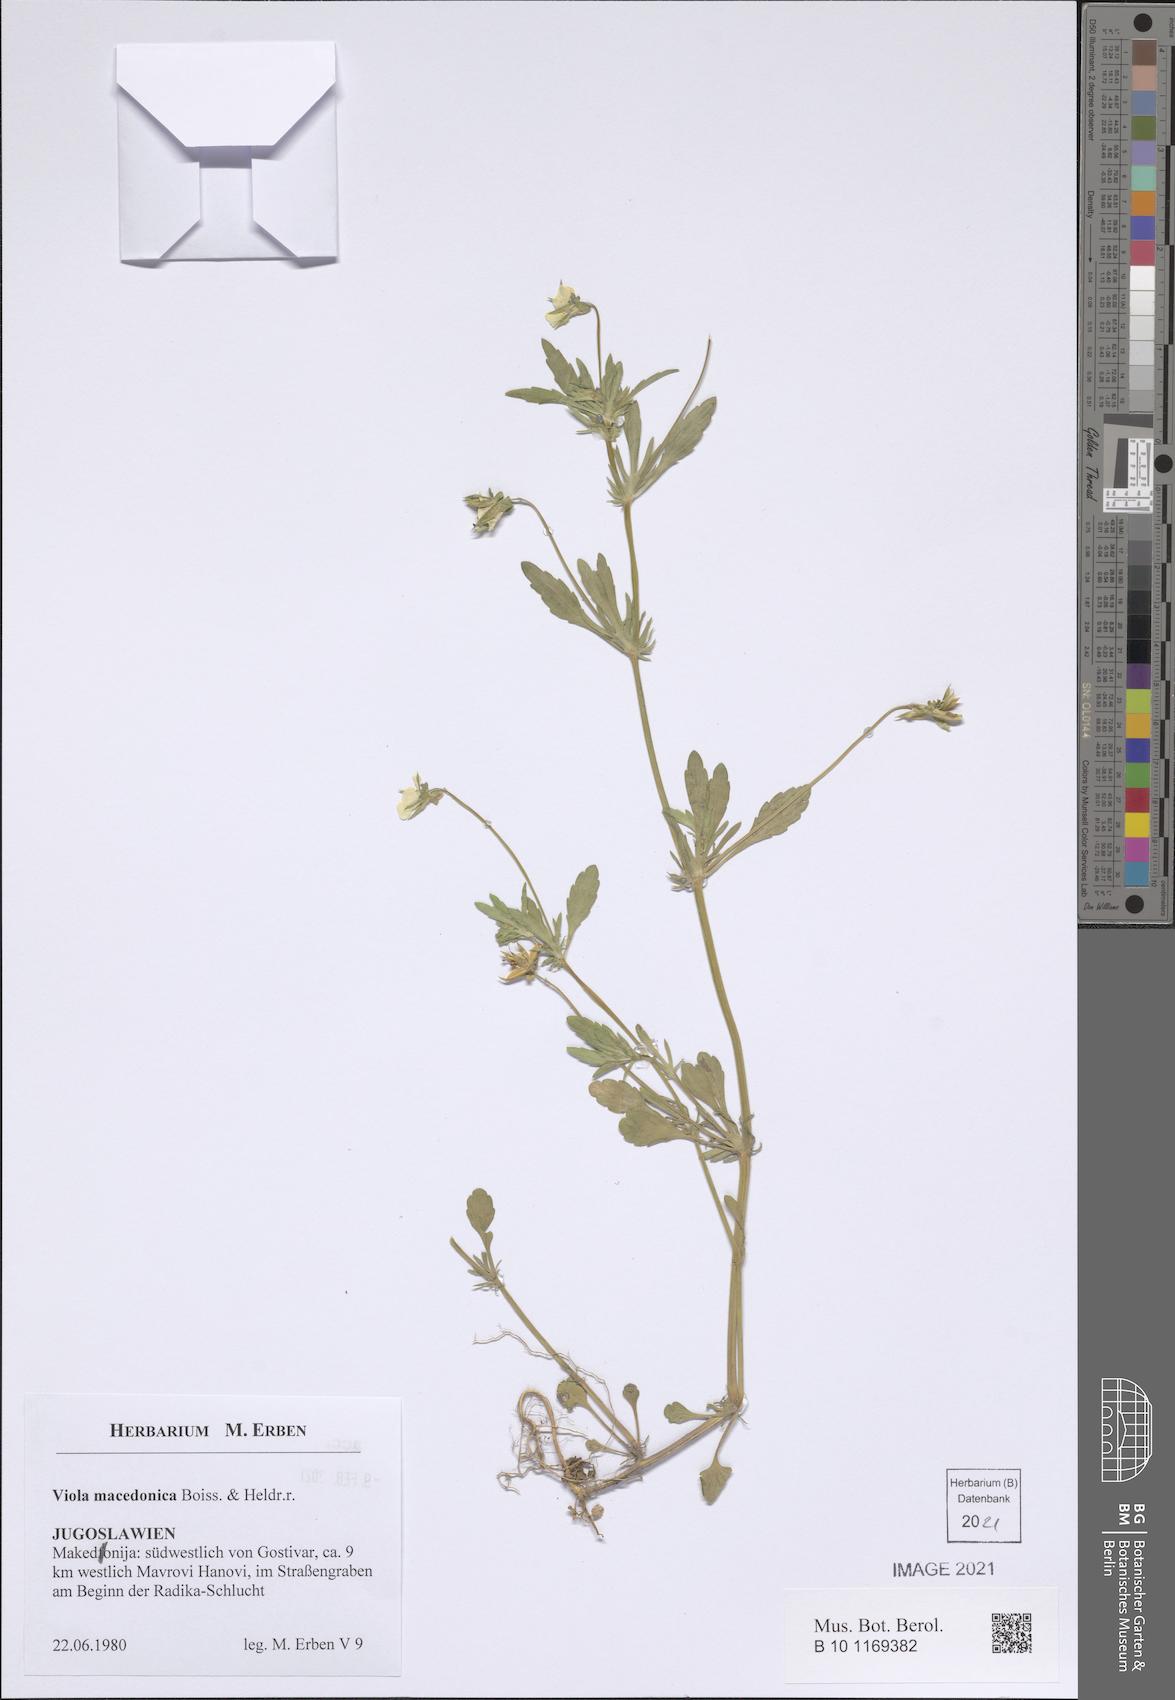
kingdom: Plantae
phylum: Tracheophyta
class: Magnoliopsida
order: Malpighiales
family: Violaceae
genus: Viola
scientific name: Viola tricolor
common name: Pansy
